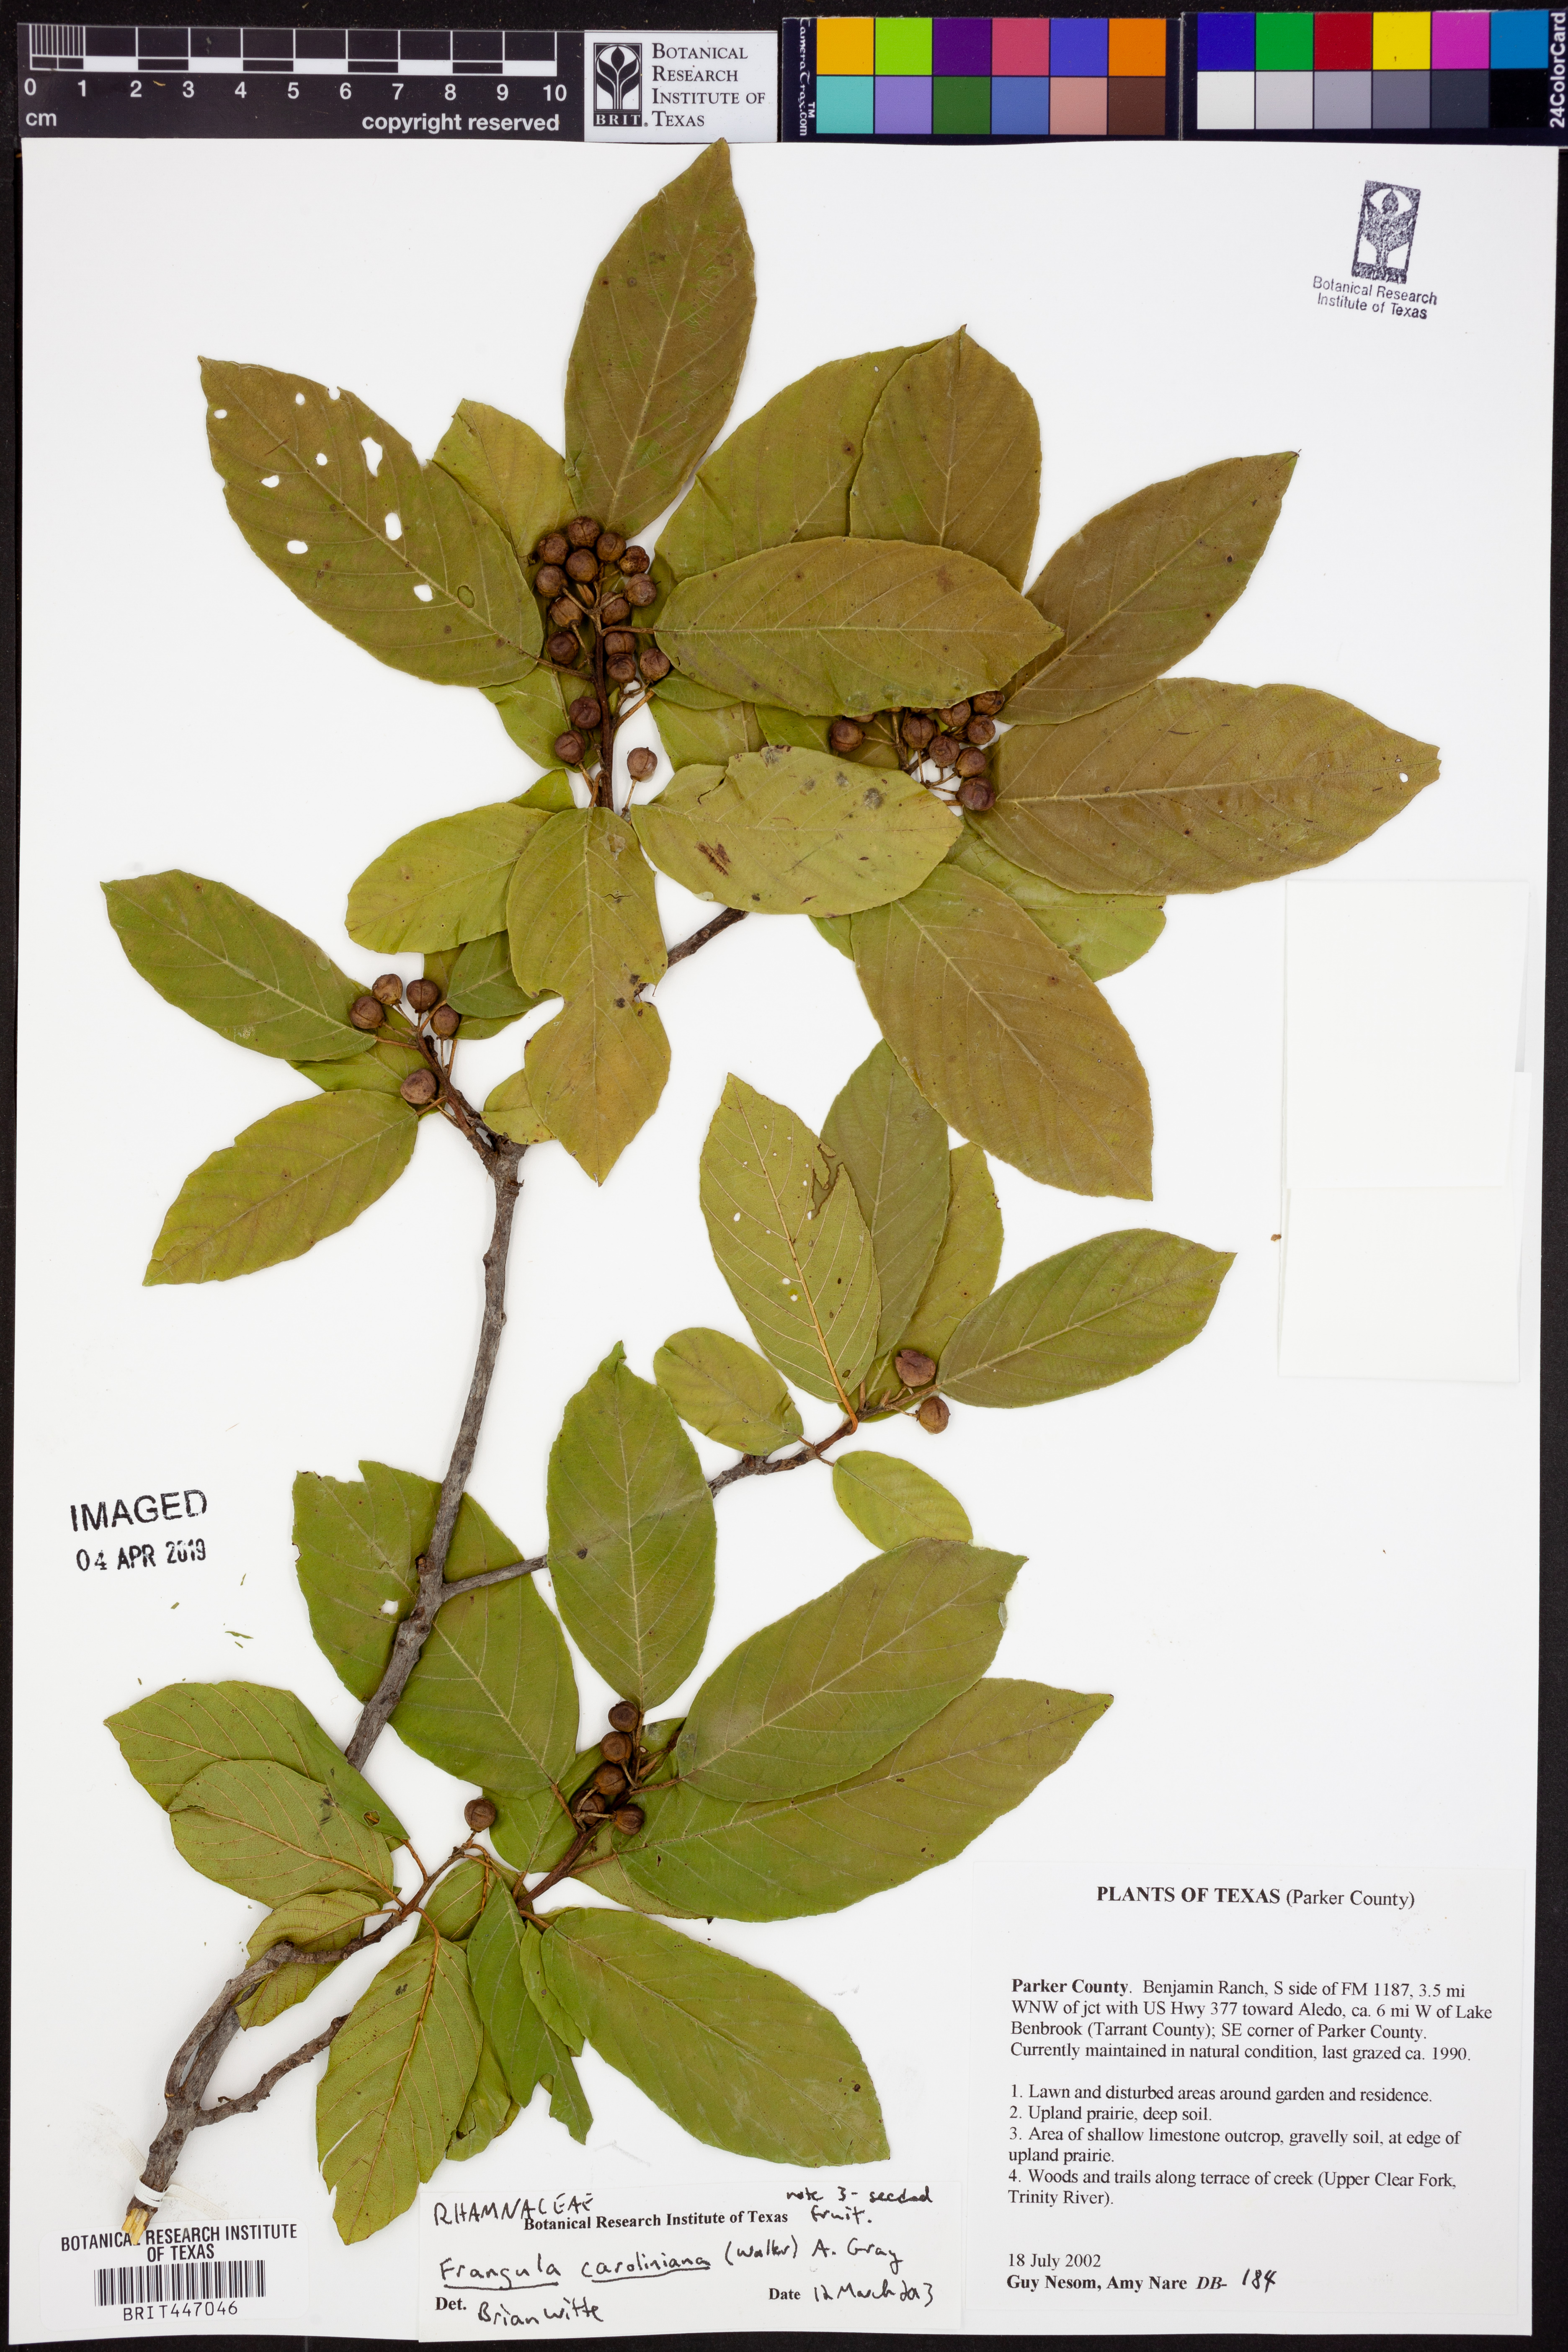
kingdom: Plantae
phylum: Tracheophyta
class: Magnoliopsida
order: Rosales
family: Rhamnaceae
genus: Frangula
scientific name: Frangula caroliniana
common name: Carolina buckthorn
